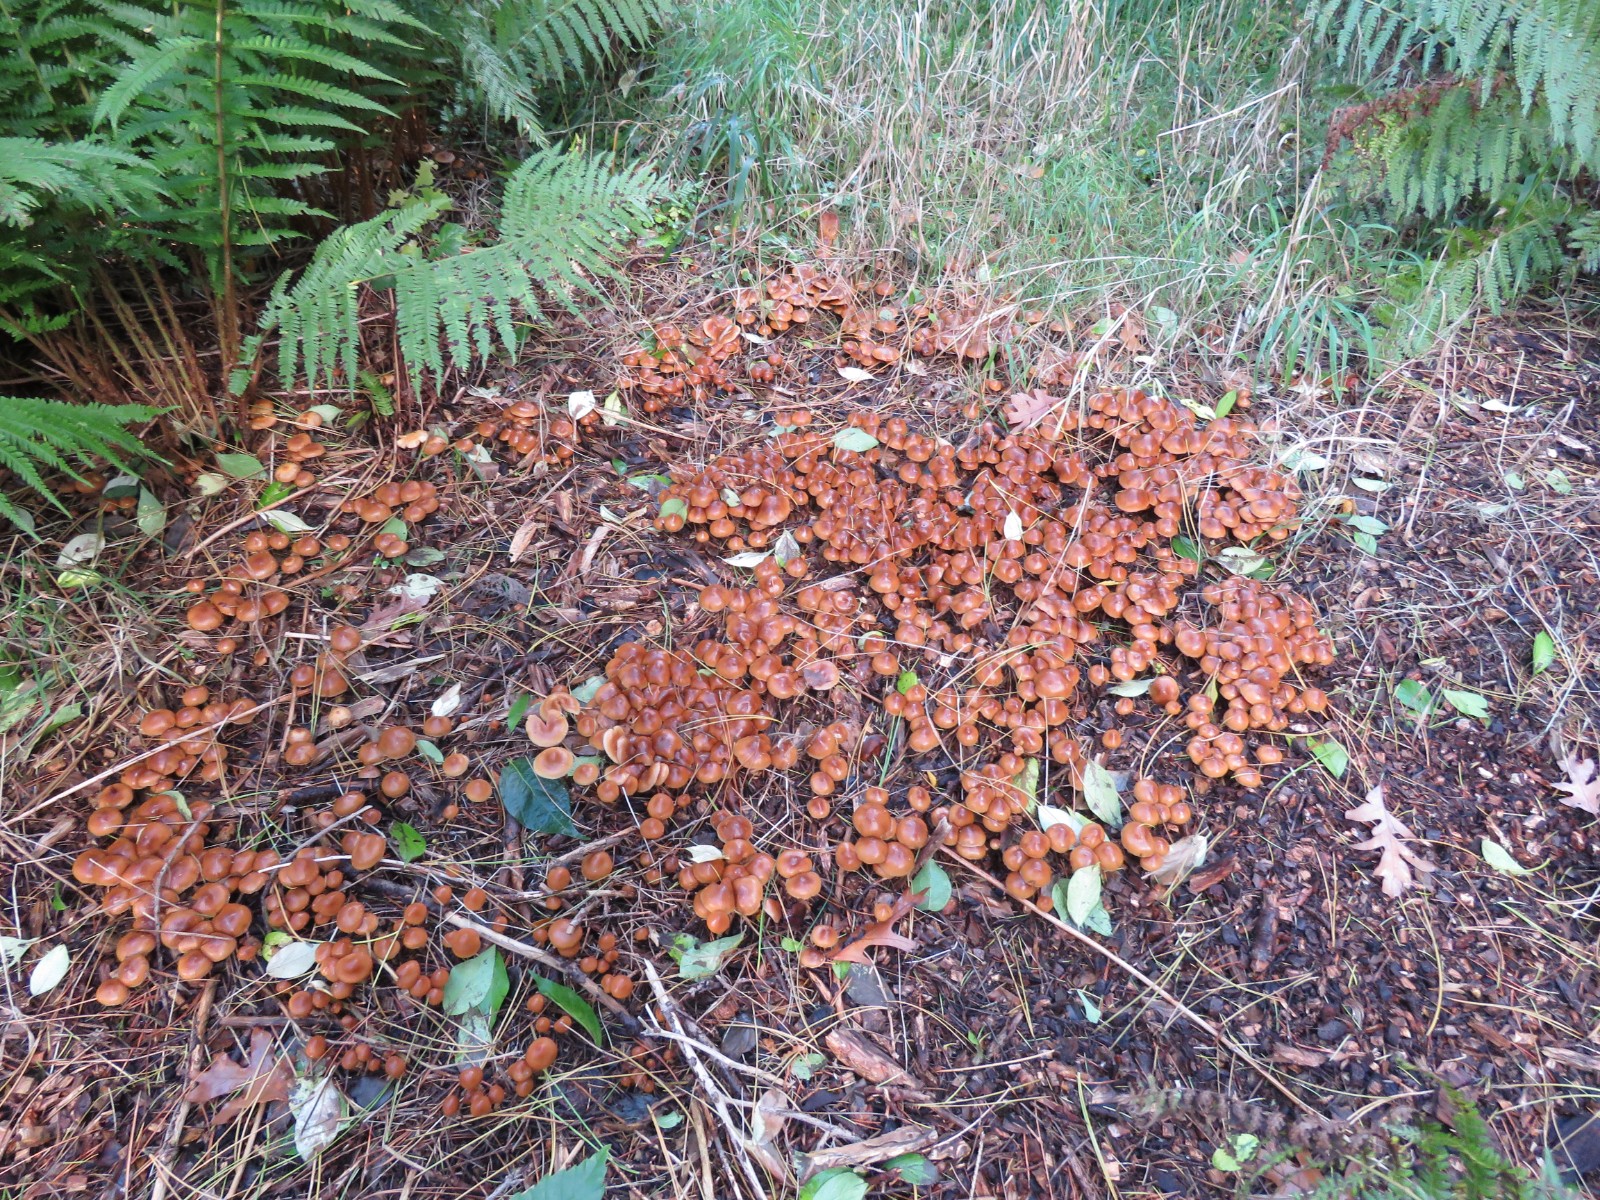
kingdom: Fungi
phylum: Basidiomycota
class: Agaricomycetes
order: Agaricales
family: Hymenogastraceae
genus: Galerina
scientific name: Galerina sideroides
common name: træflis-hjelmhat
